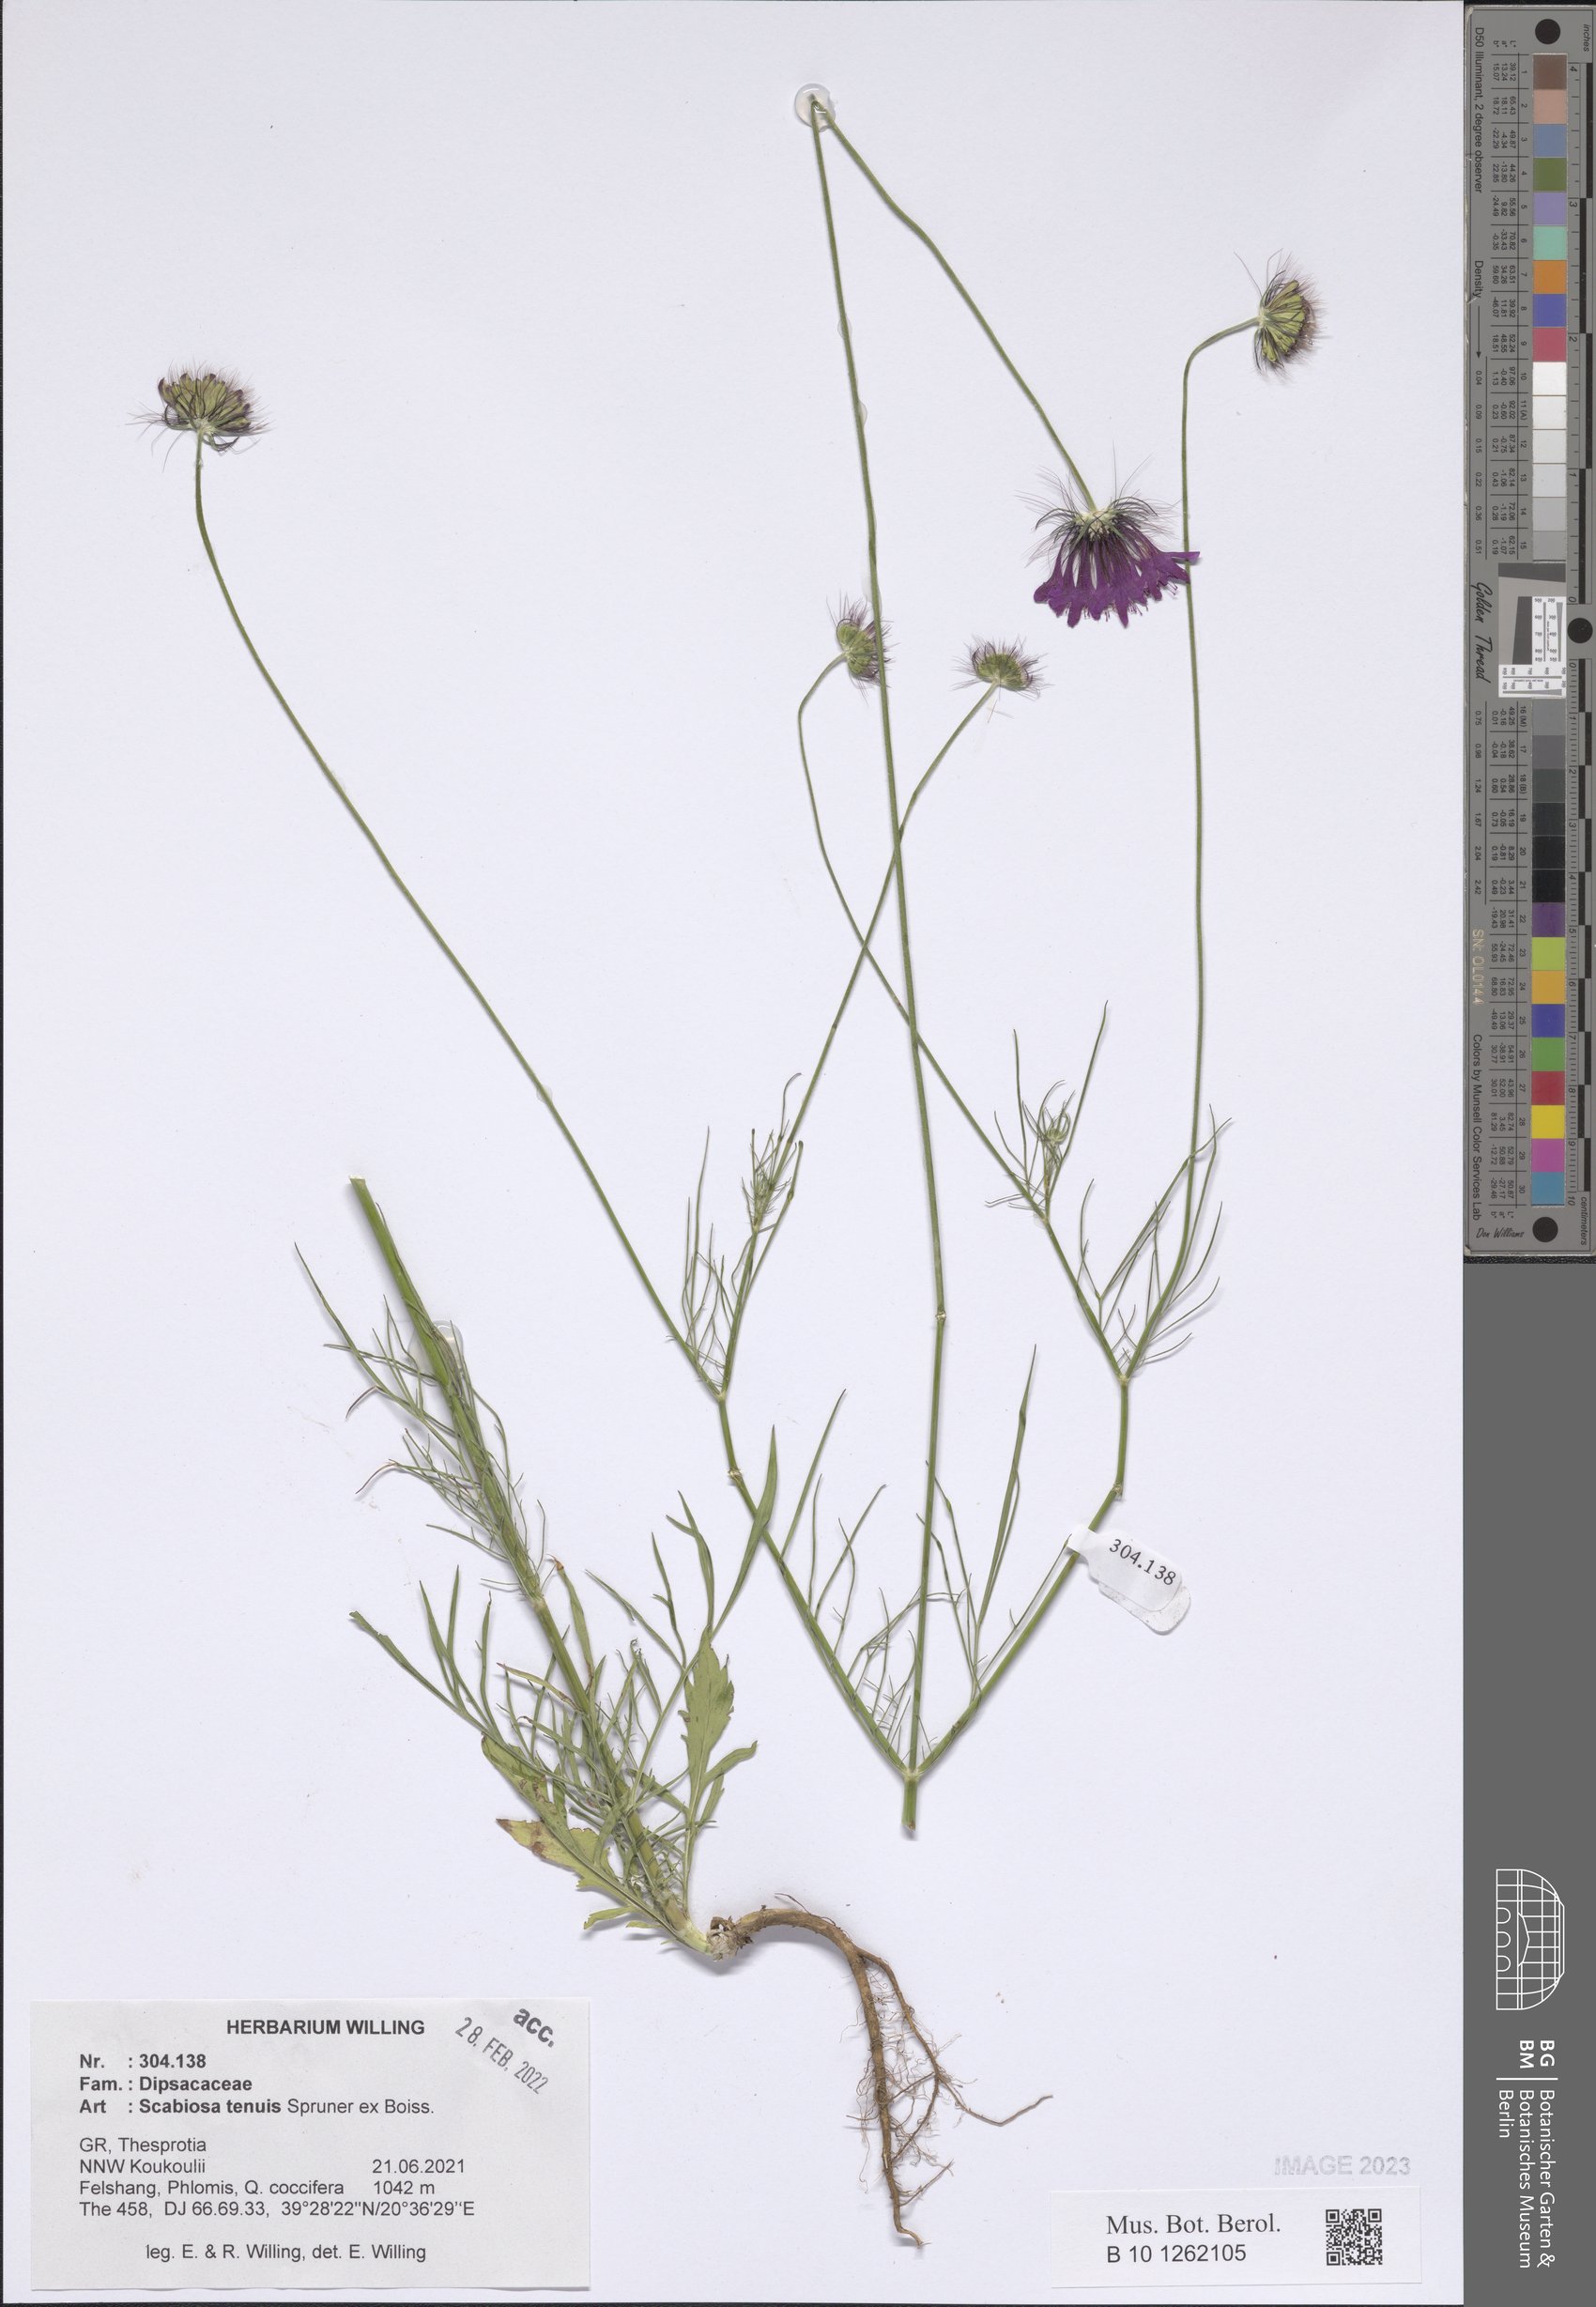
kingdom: Plantae
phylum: Tracheophyta
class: Magnoliopsida
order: Dipsacales
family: Caprifoliaceae
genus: Scabiosa
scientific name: Scabiosa tenuis
